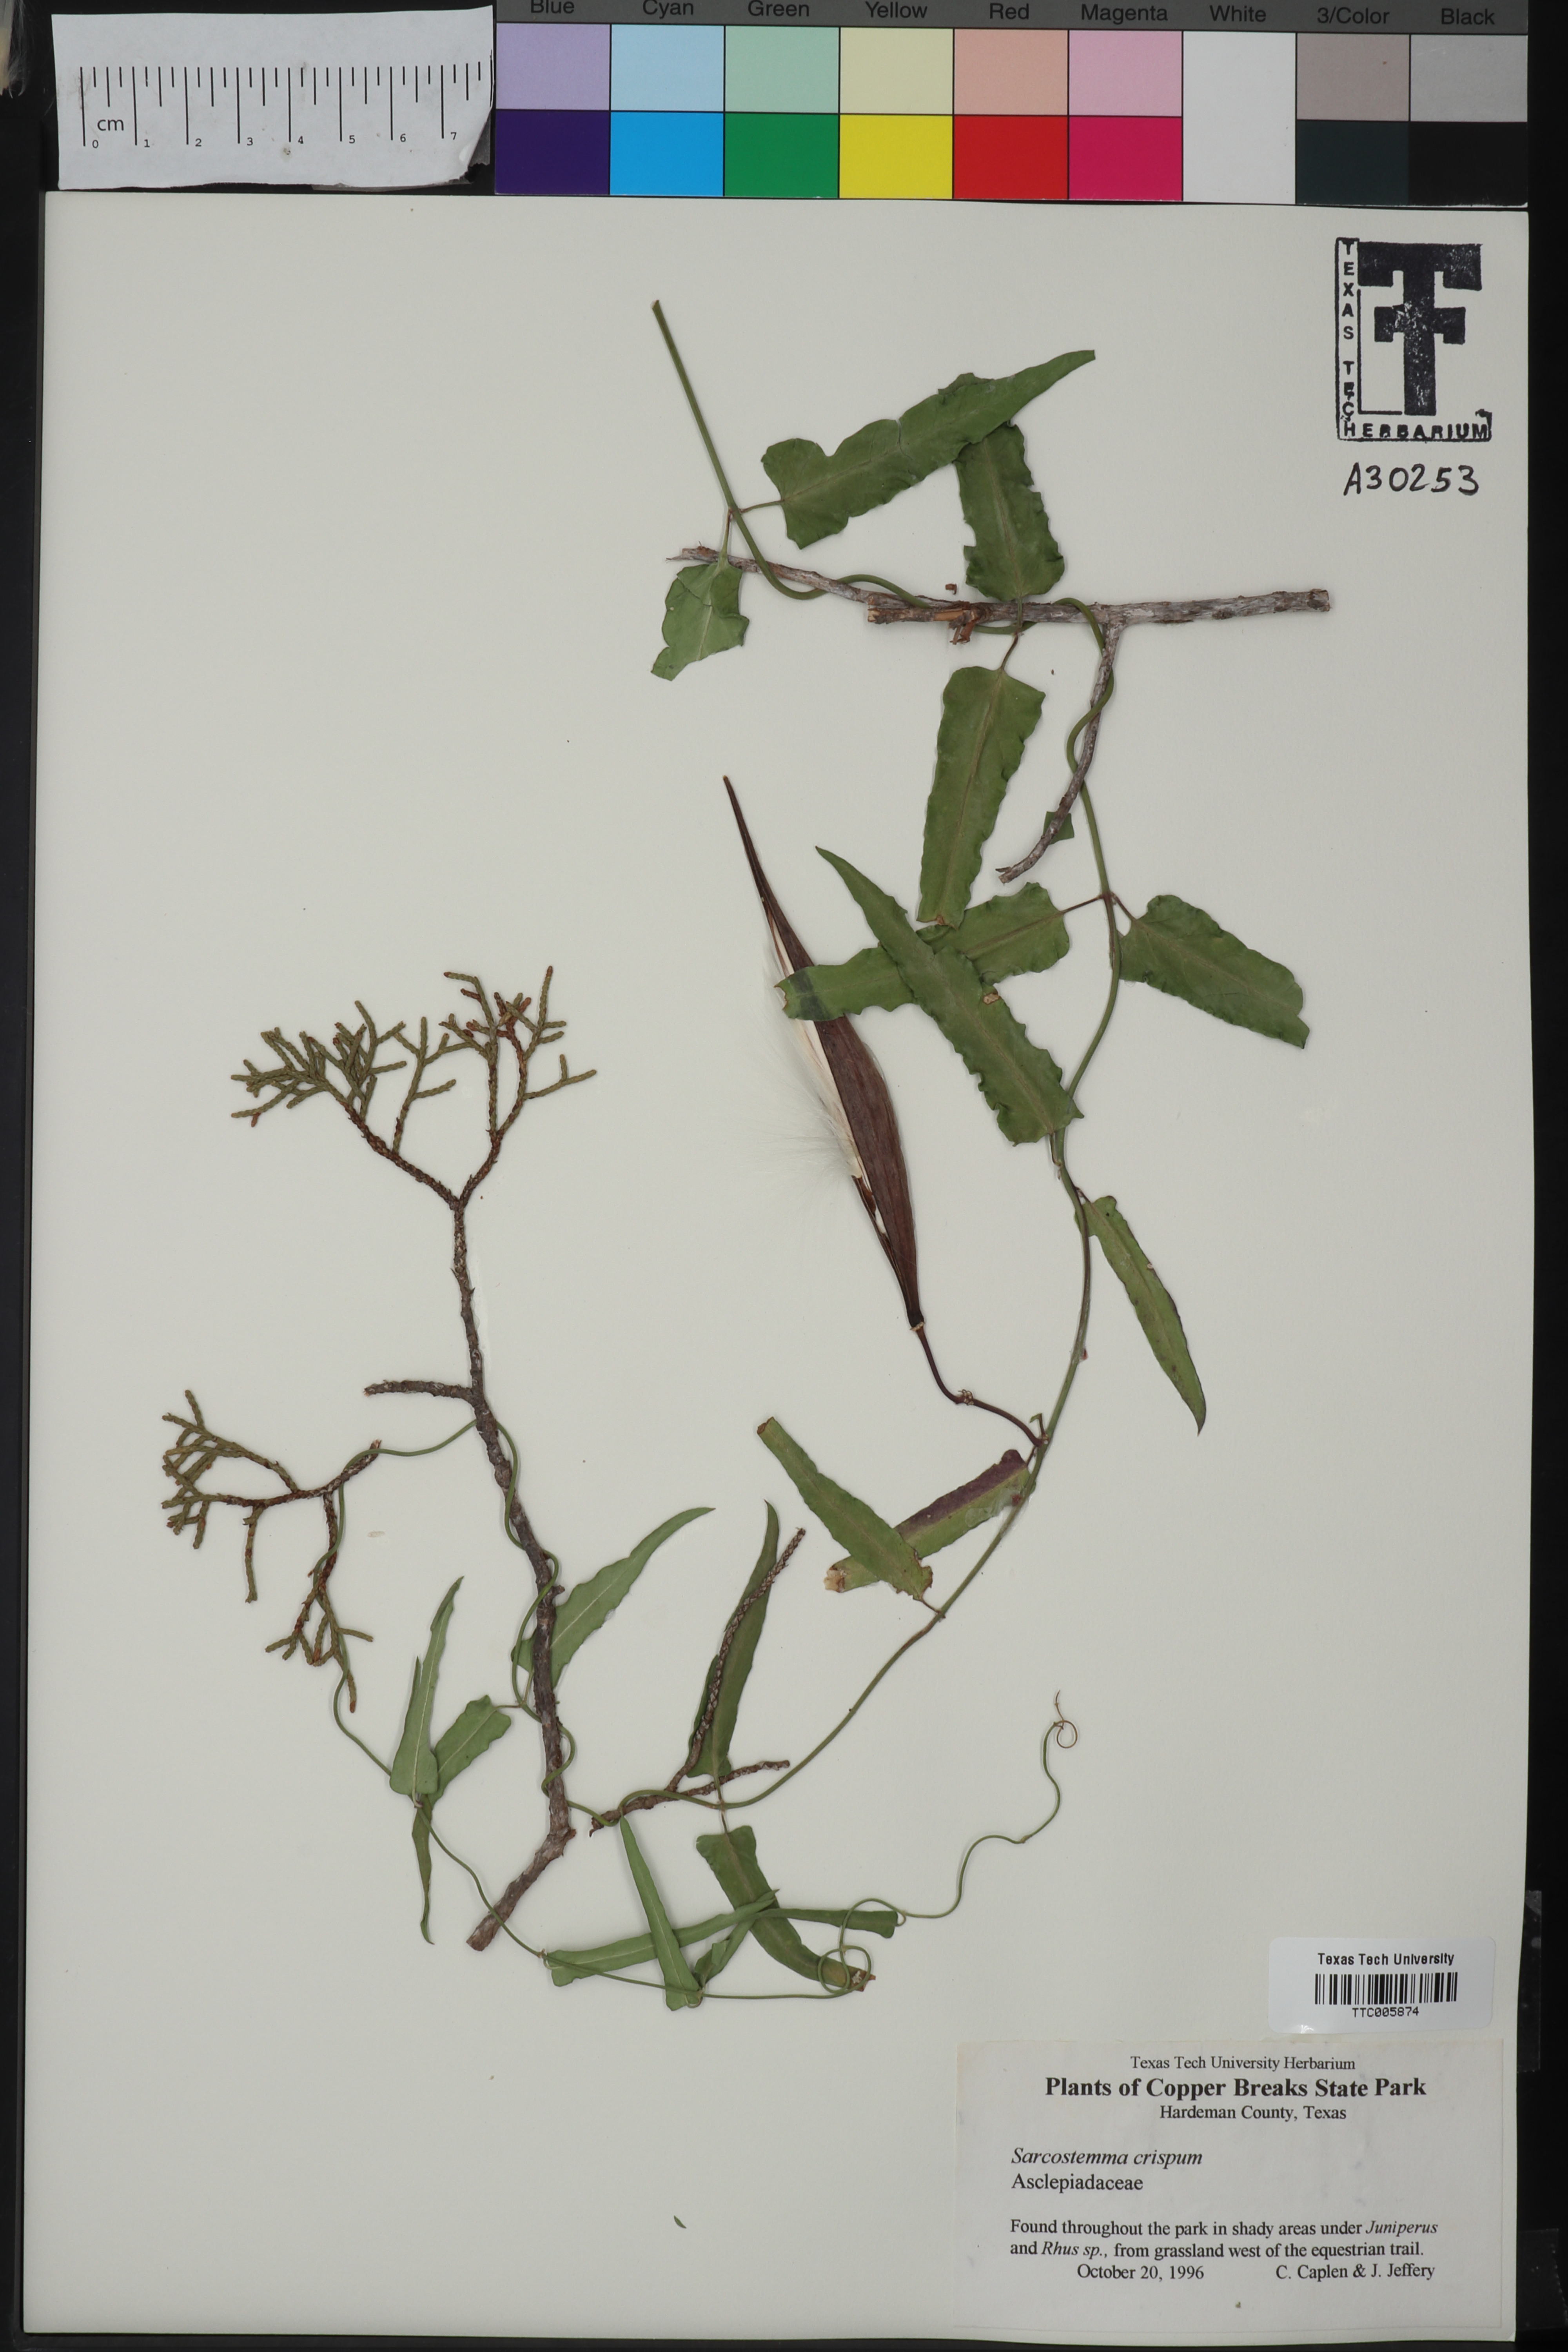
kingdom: Plantae
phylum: Tracheophyta
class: Magnoliopsida
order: Gentianales
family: Apocynaceae
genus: Funastrum
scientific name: Funastrum crispum
